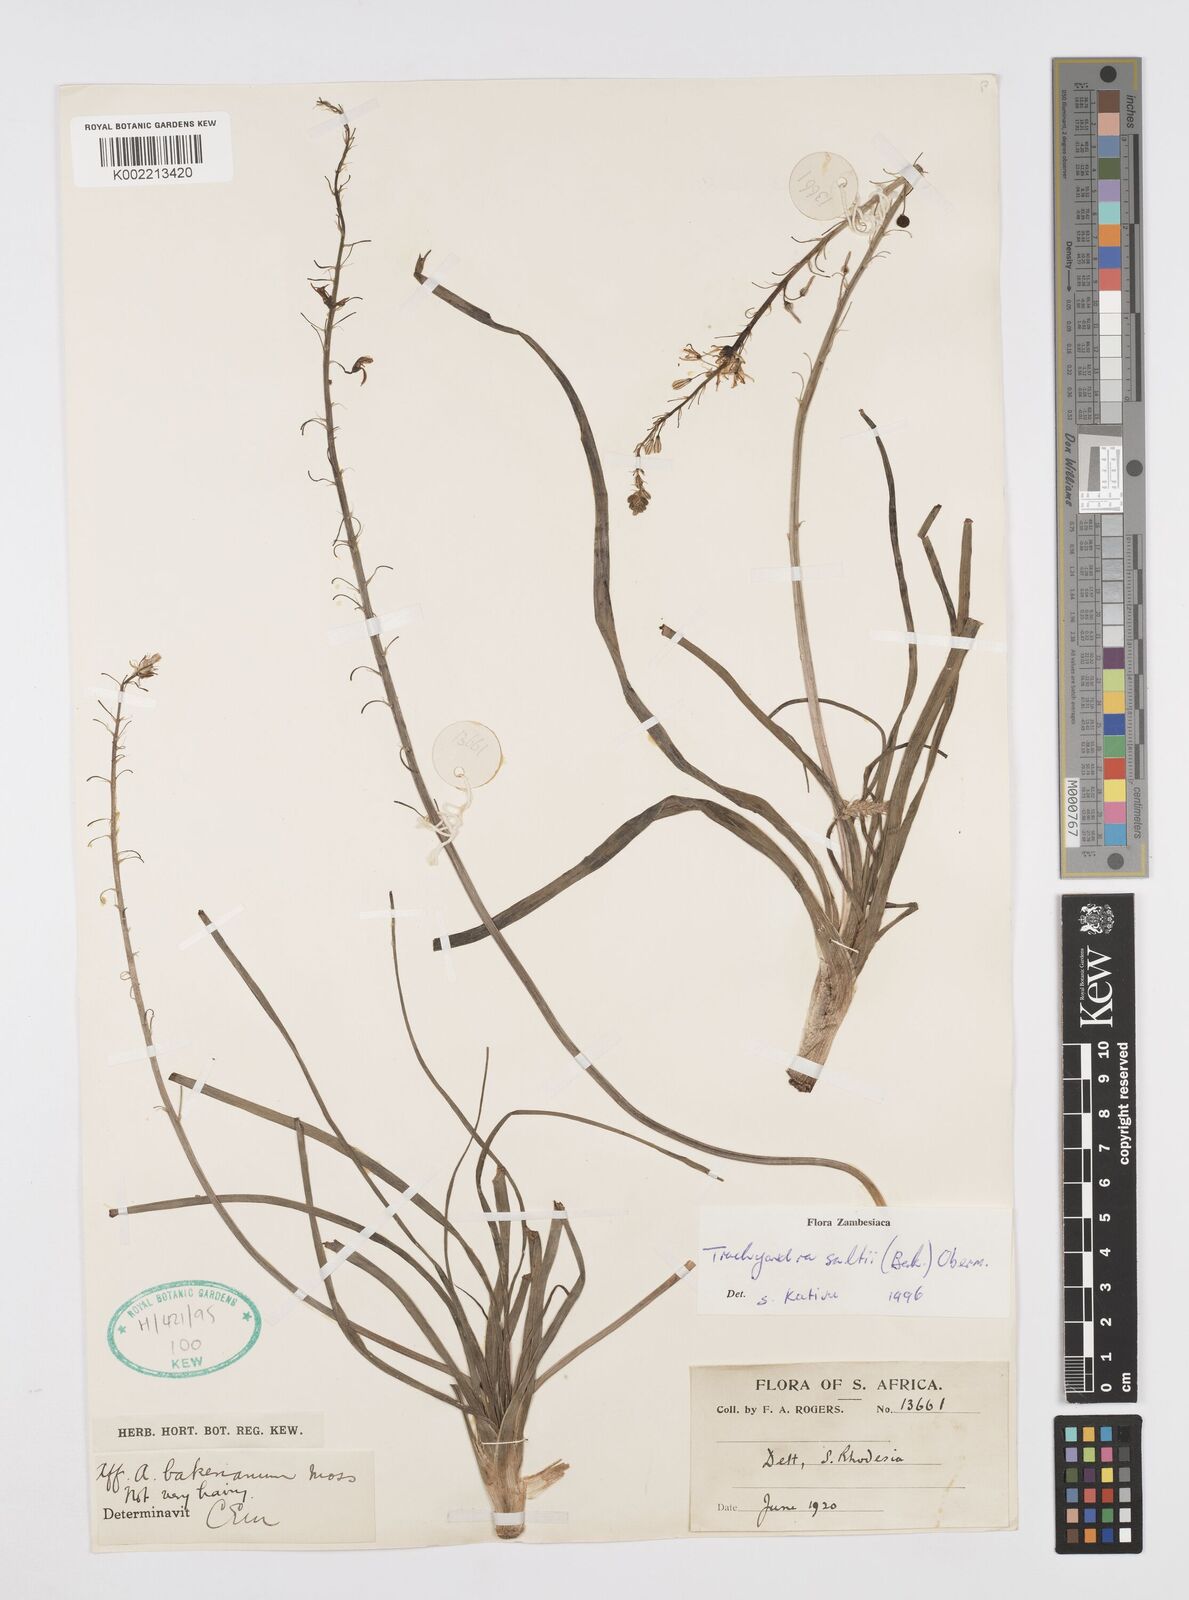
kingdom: Plantae
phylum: Tracheophyta
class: Liliopsida
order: Asparagales
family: Asphodelaceae
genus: Trachyandra
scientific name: Trachyandra saltii
